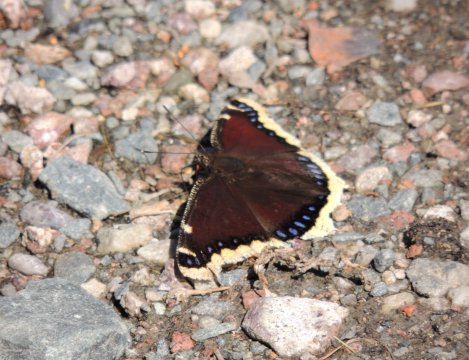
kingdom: Animalia
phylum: Arthropoda
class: Insecta
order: Lepidoptera
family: Nymphalidae
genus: Nymphalis
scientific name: Nymphalis antiopa
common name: Mourning Cloak
